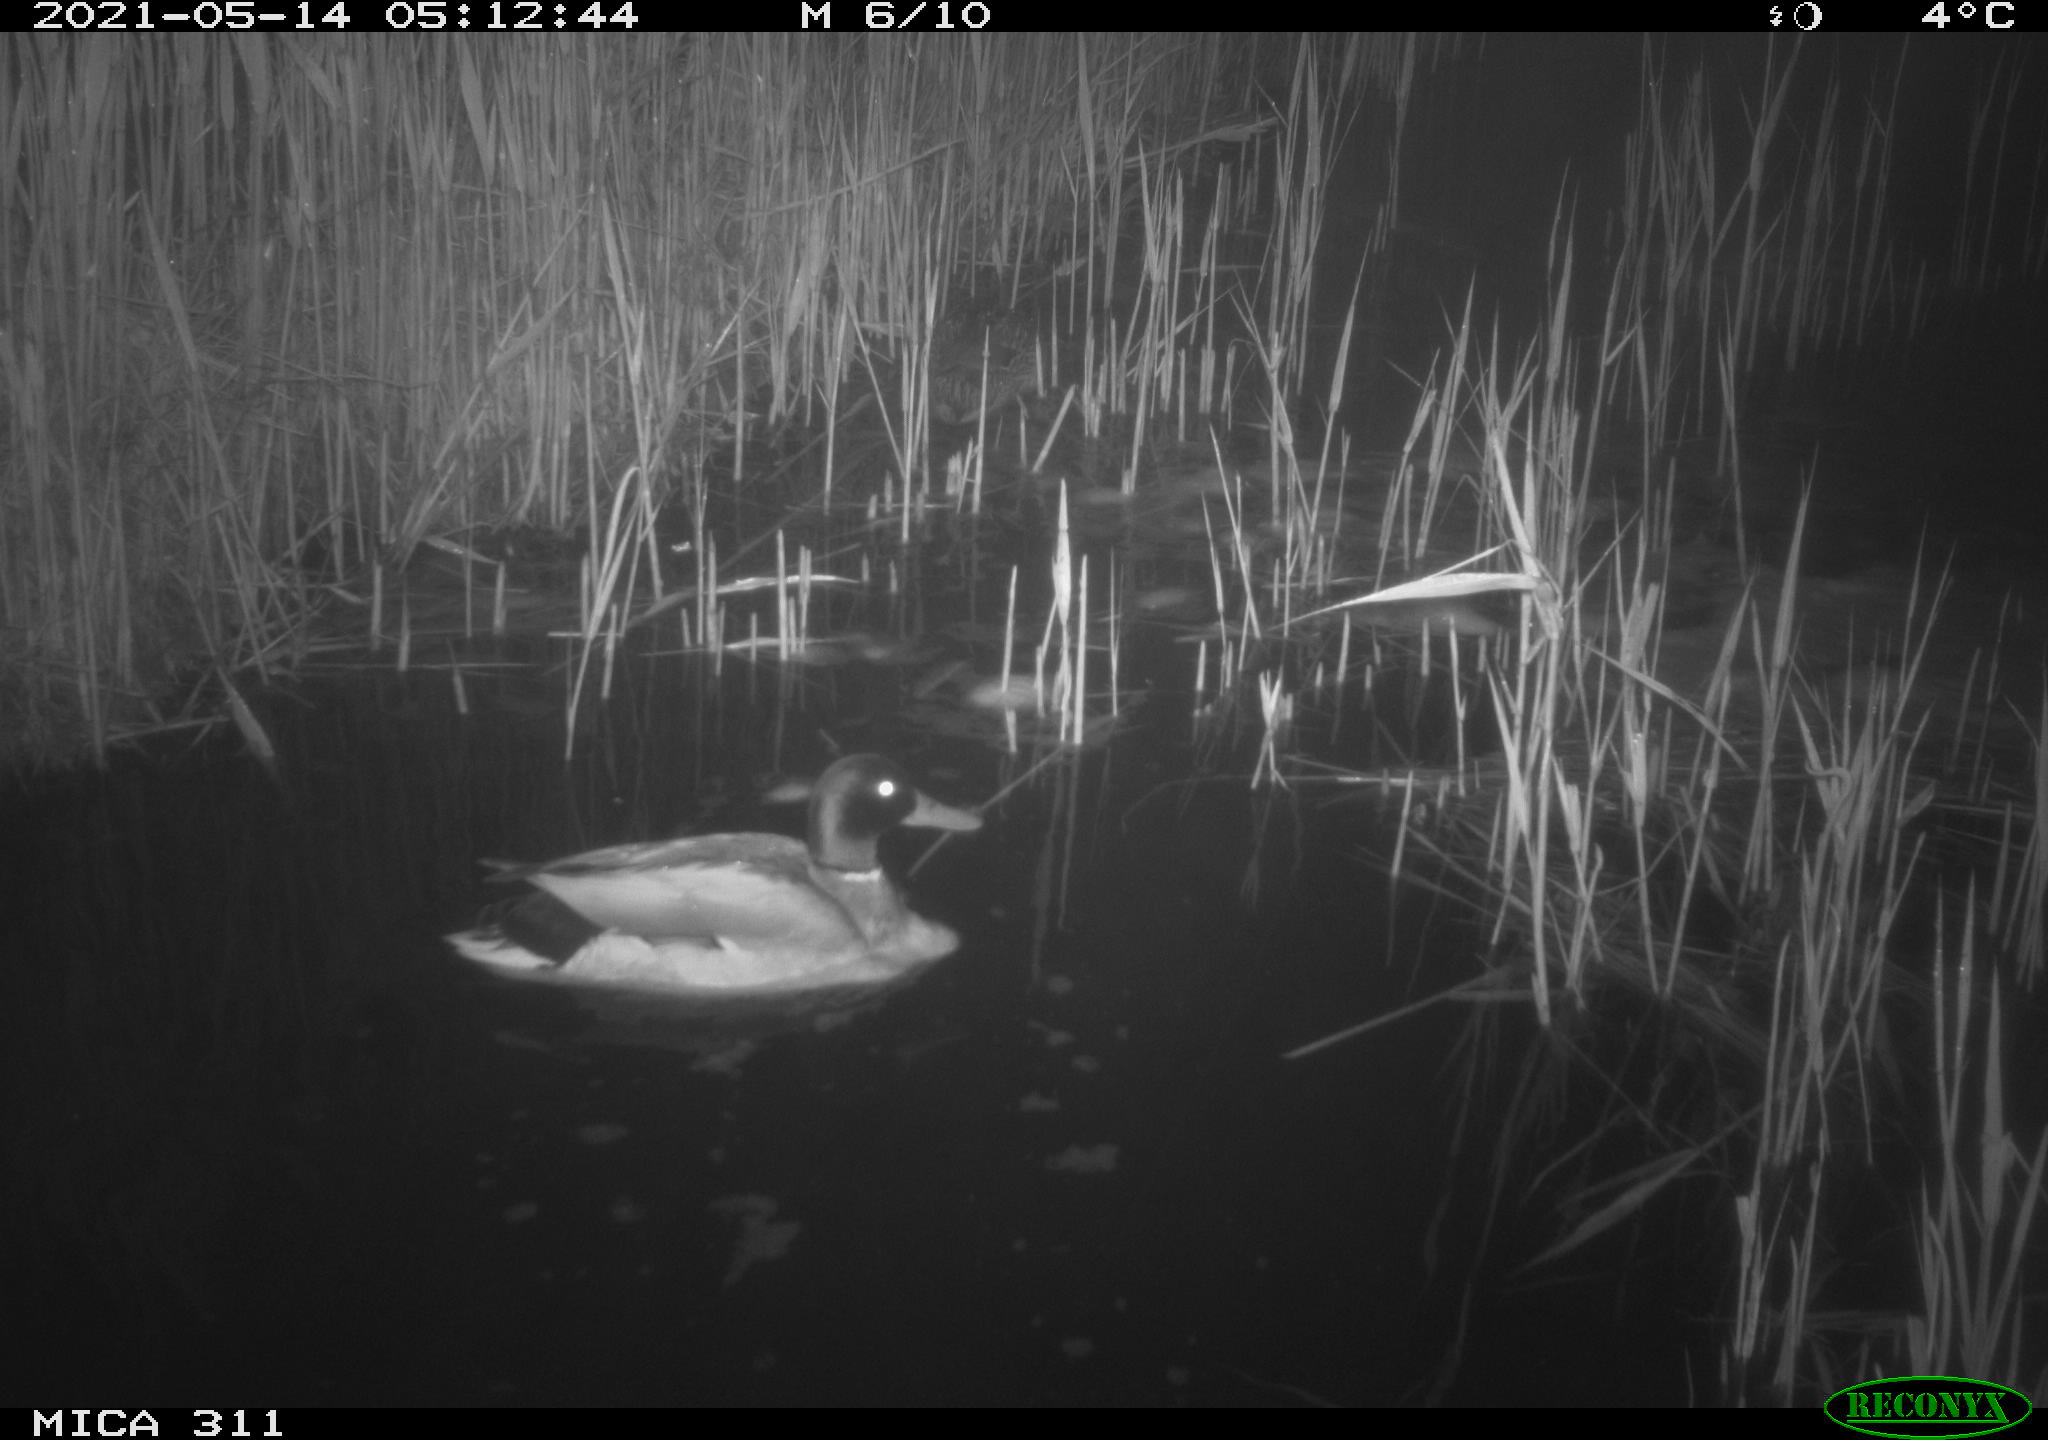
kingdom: Animalia
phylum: Chordata
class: Aves
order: Anseriformes
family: Anatidae
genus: Anas
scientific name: Anas
